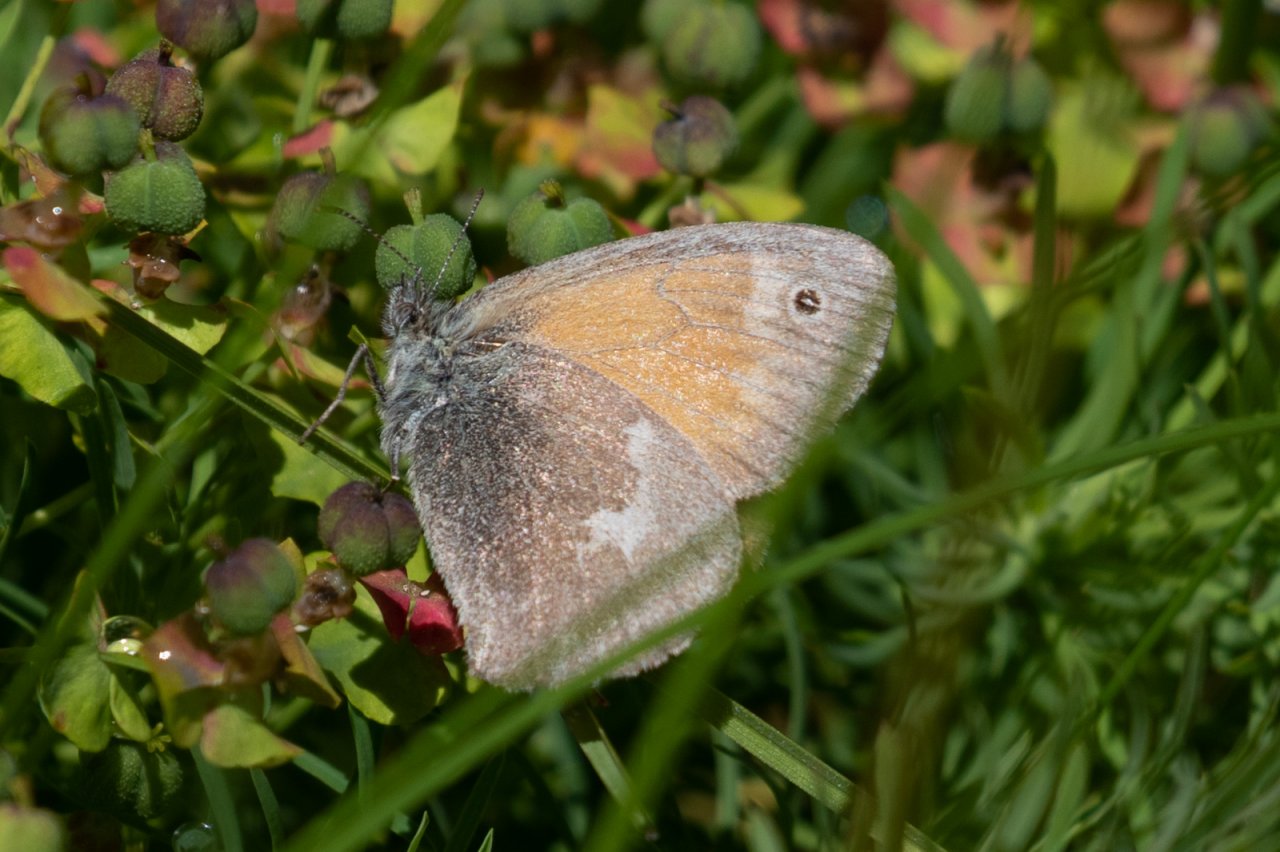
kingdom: Animalia
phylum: Arthropoda
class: Insecta
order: Lepidoptera
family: Nymphalidae
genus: Coenonympha
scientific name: Coenonympha tullia
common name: Large Heath
